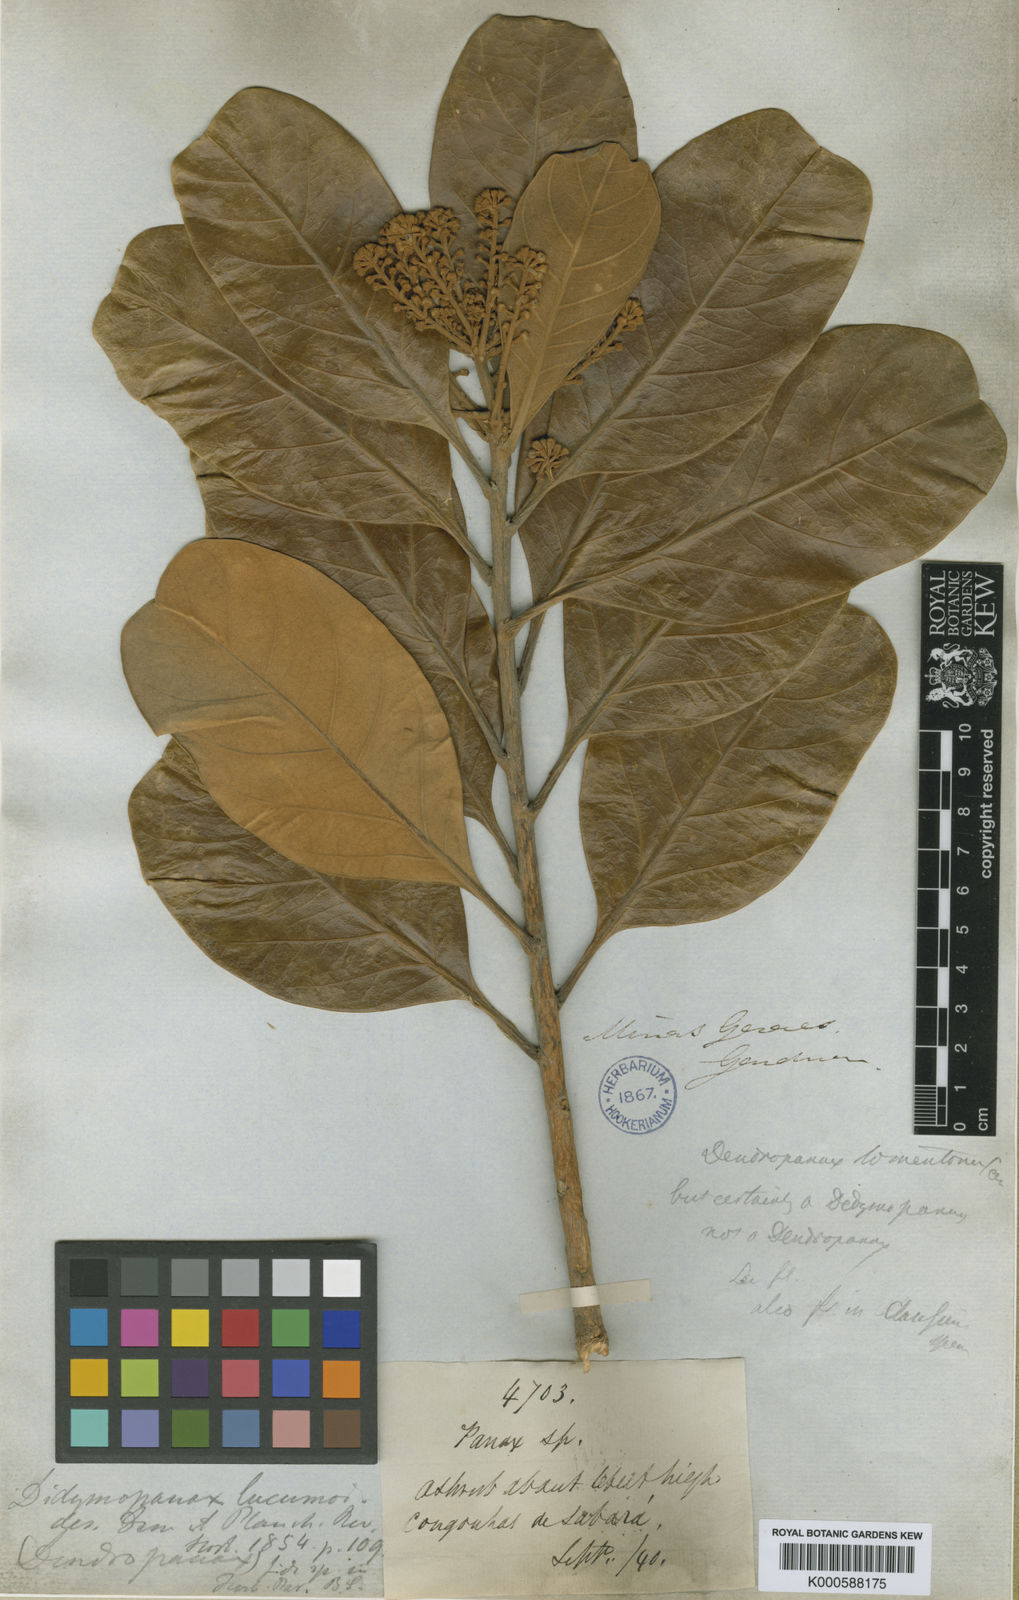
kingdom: Plantae
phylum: Tracheophyta
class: Magnoliopsida
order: Apiales
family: Araliaceae
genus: Didymopanax
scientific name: Didymopanax lucumoides
